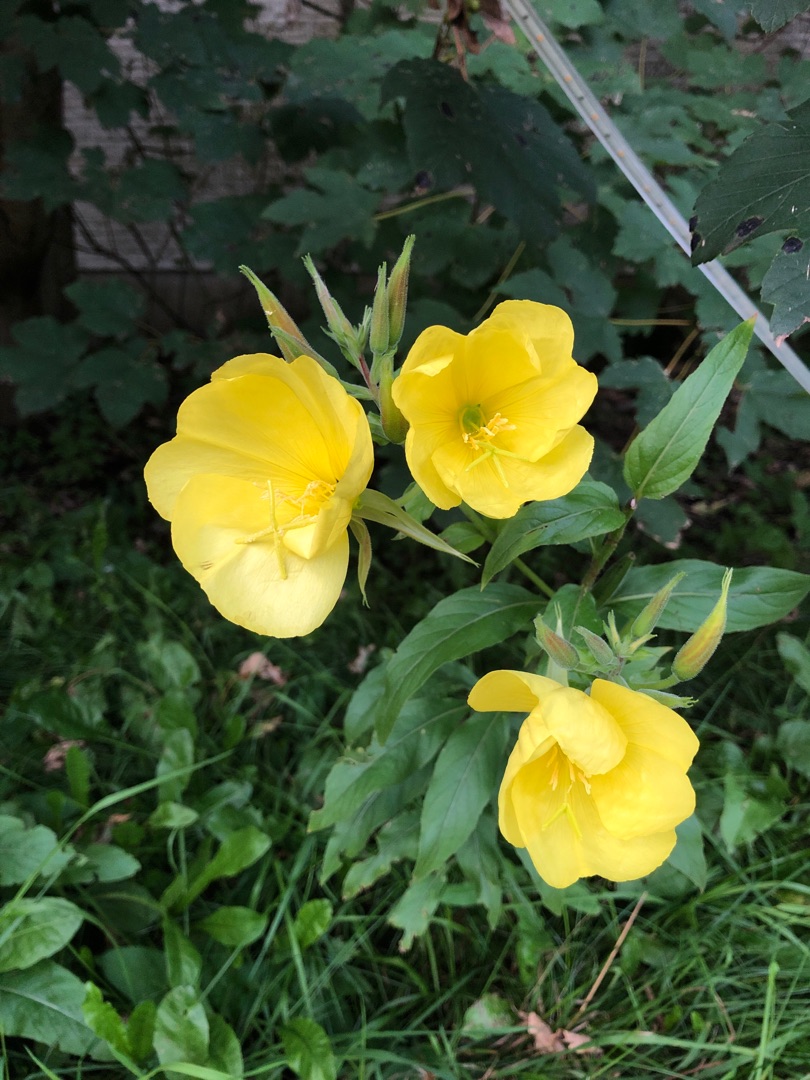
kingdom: Plantae
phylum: Tracheophyta
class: Magnoliopsida
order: Myrtales
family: Onagraceae
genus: Oenothera
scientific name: Oenothera glazioviana
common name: Kæmpe-natlys
